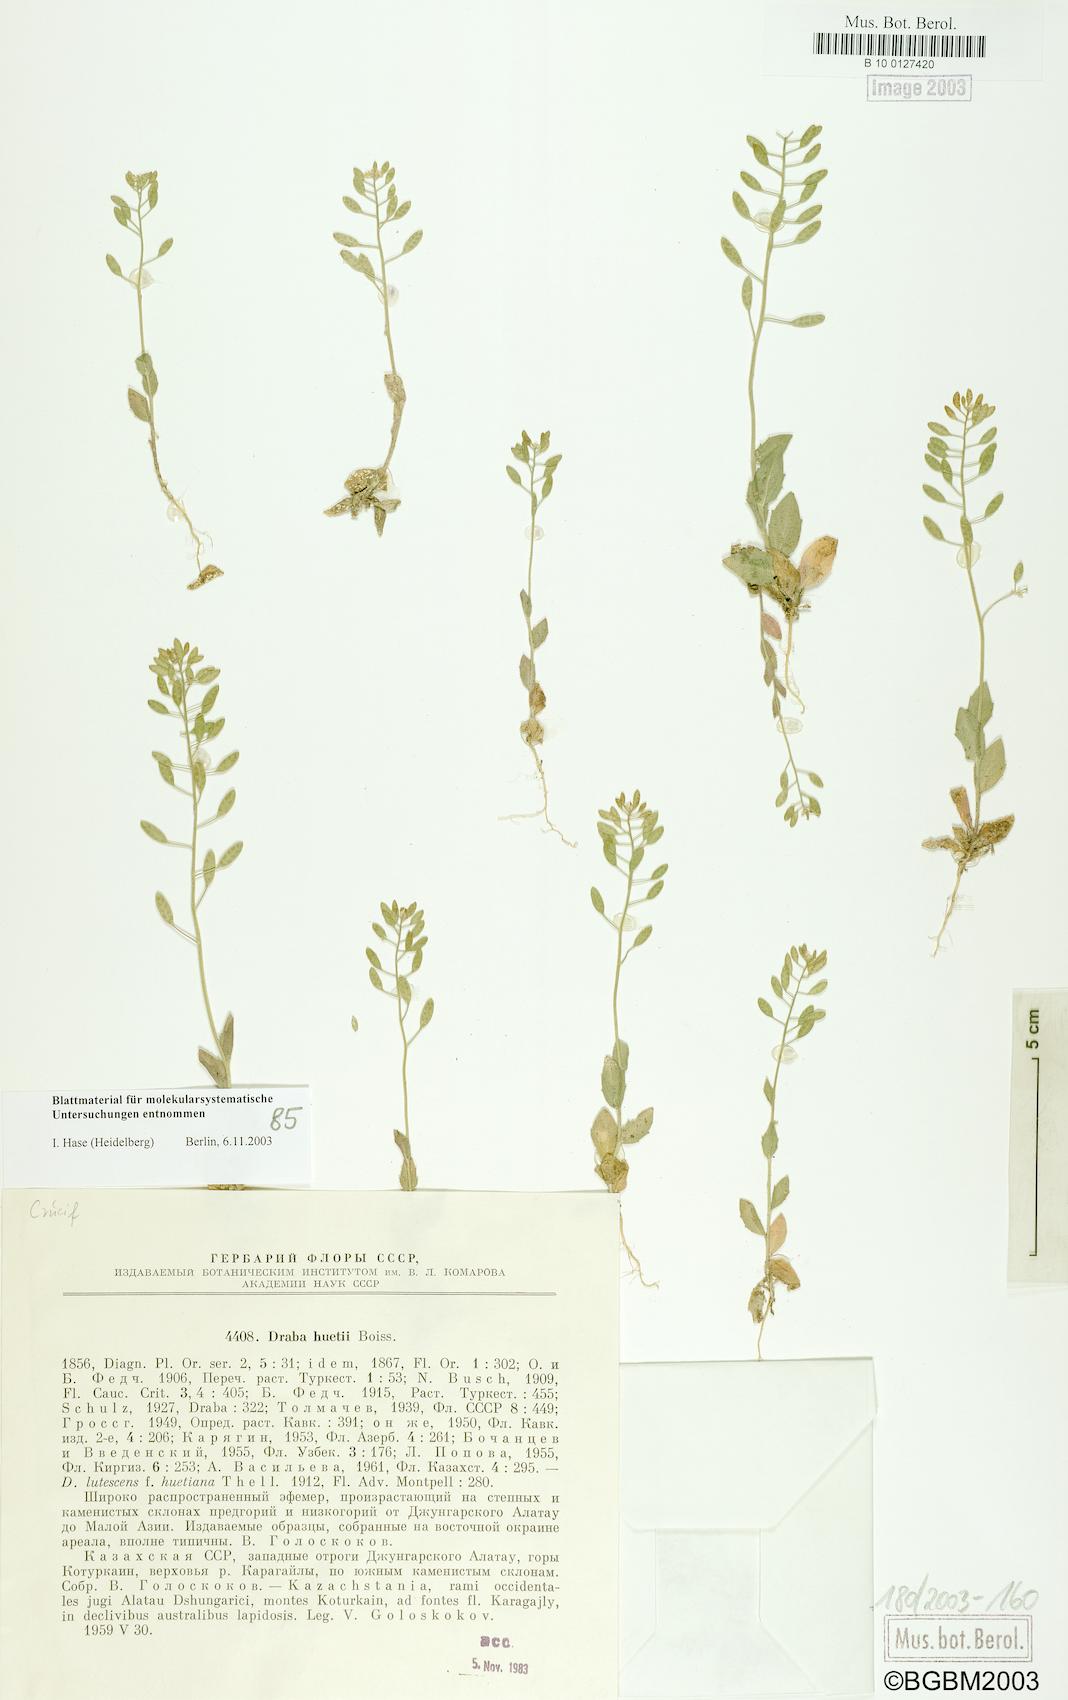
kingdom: Plantae
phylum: Tracheophyta
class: Magnoliopsida
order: Brassicales
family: Brassicaceae
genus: Draba
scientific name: Draba huetii
